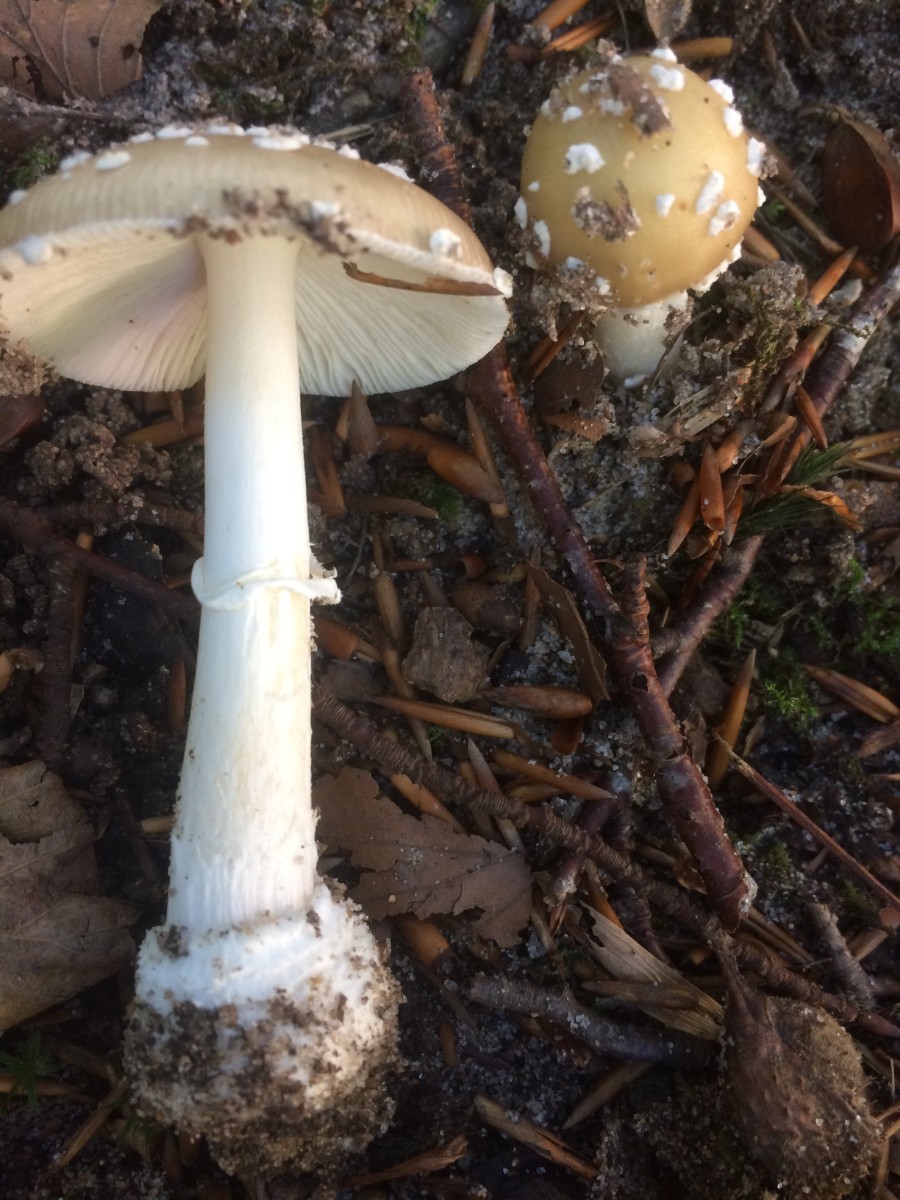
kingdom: Fungi
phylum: Basidiomycota
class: Agaricomycetes
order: Agaricales
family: Amanitaceae
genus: Amanita
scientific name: Amanita pantherina
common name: panter-fluesvamp
